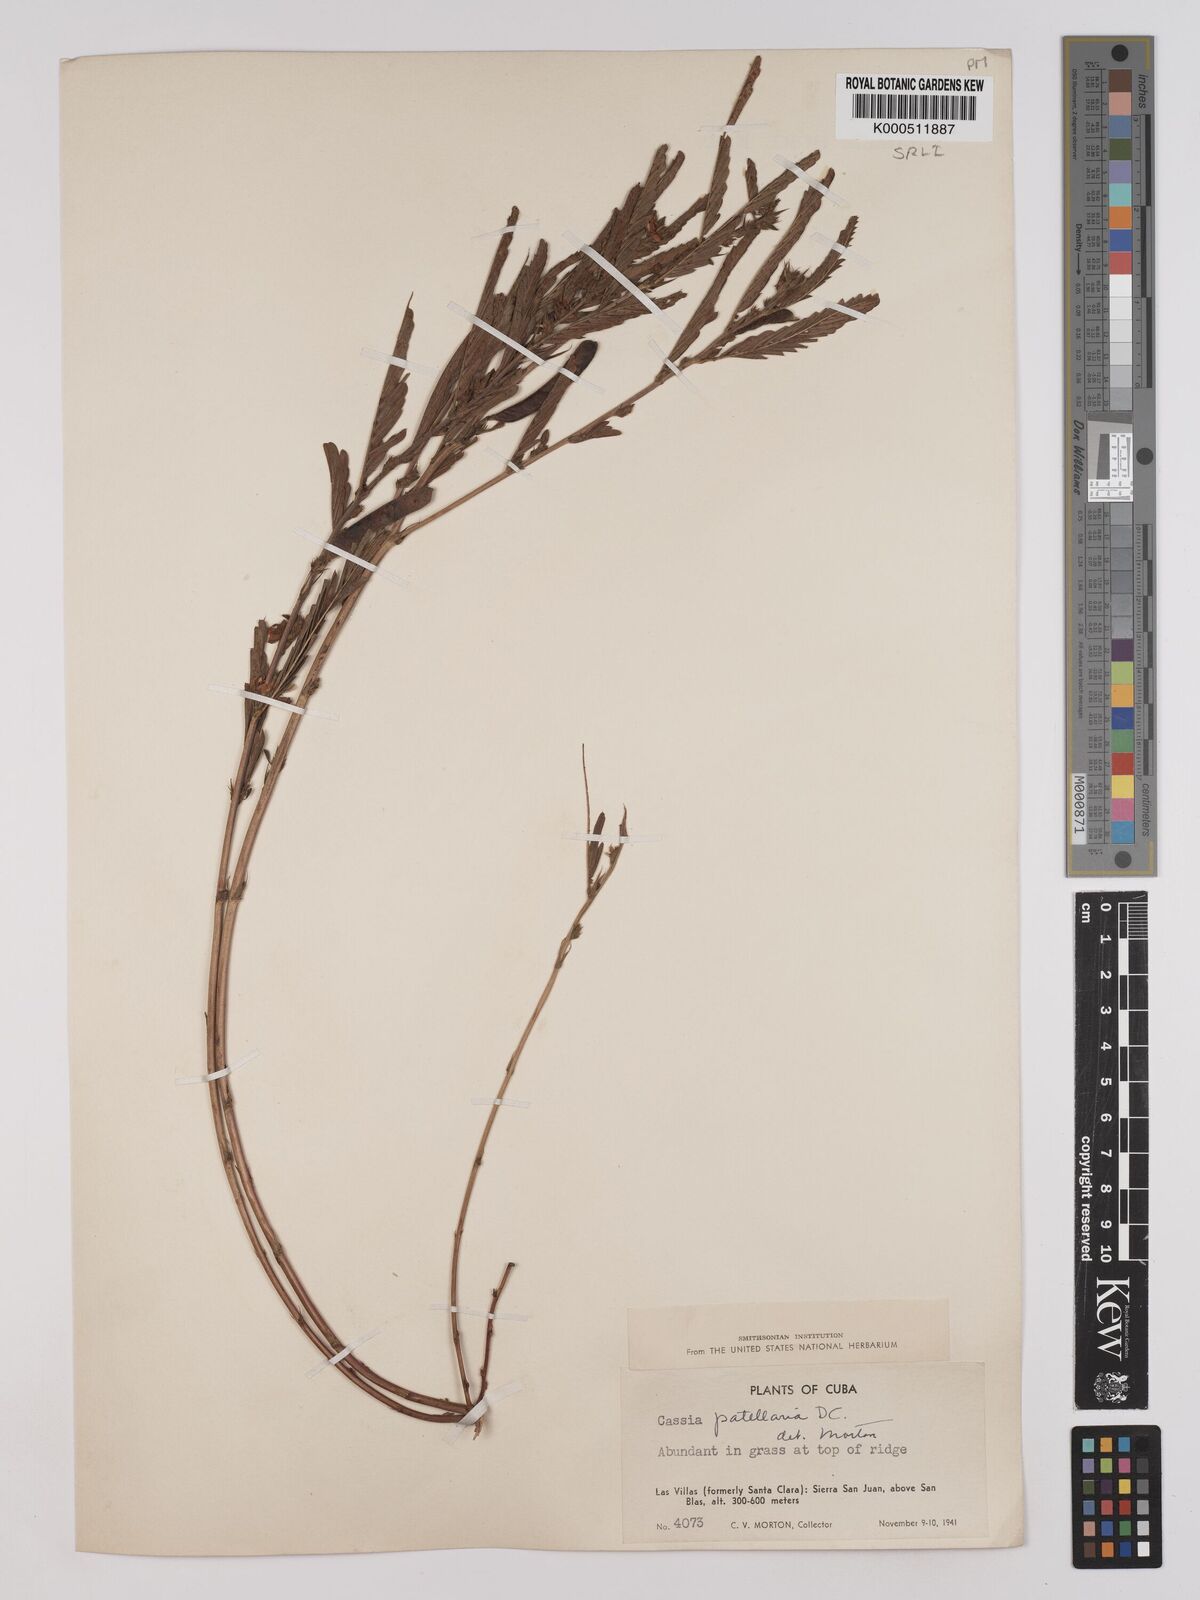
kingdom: Plantae
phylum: Tracheophyta
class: Magnoliopsida
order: Fabales
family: Fabaceae
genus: Chamaecrista
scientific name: Chamaecrista nictitans
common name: Sensitive cassia
